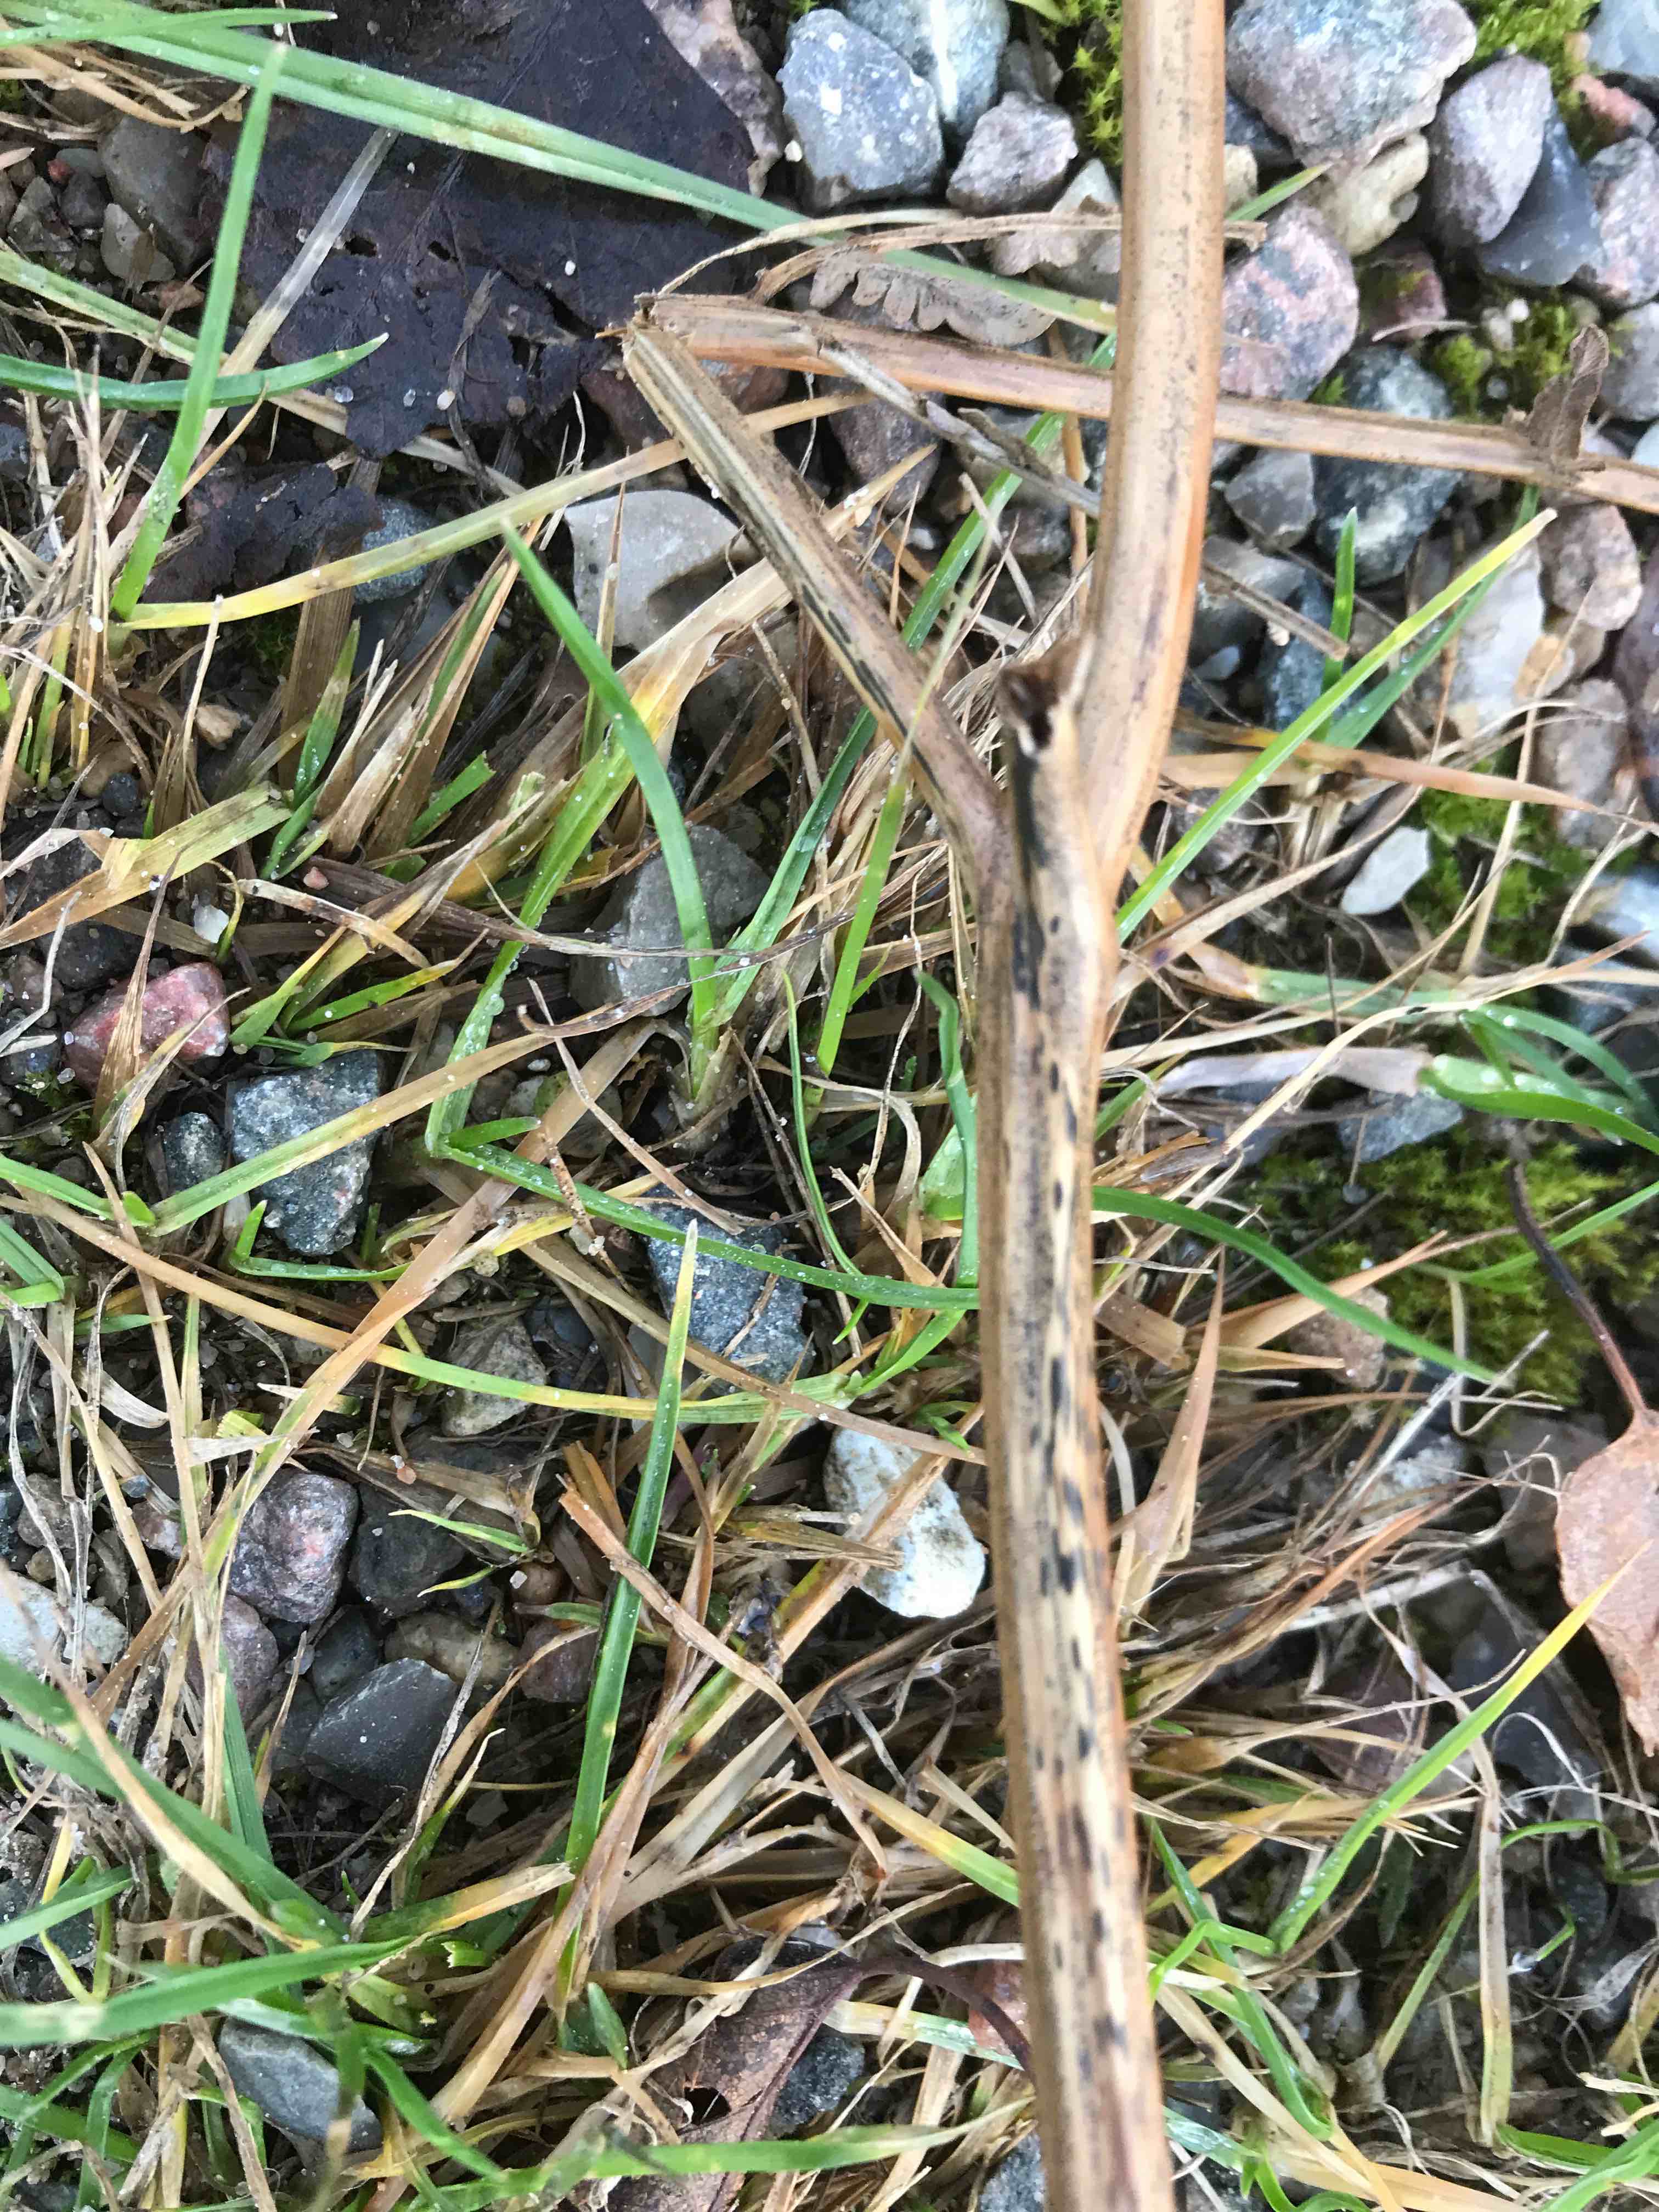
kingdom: Fungi
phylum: Ascomycota
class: Dothideomycetes
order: Pleosporales
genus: Rhopographus
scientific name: Rhopographus filicinus
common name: Bracken map
